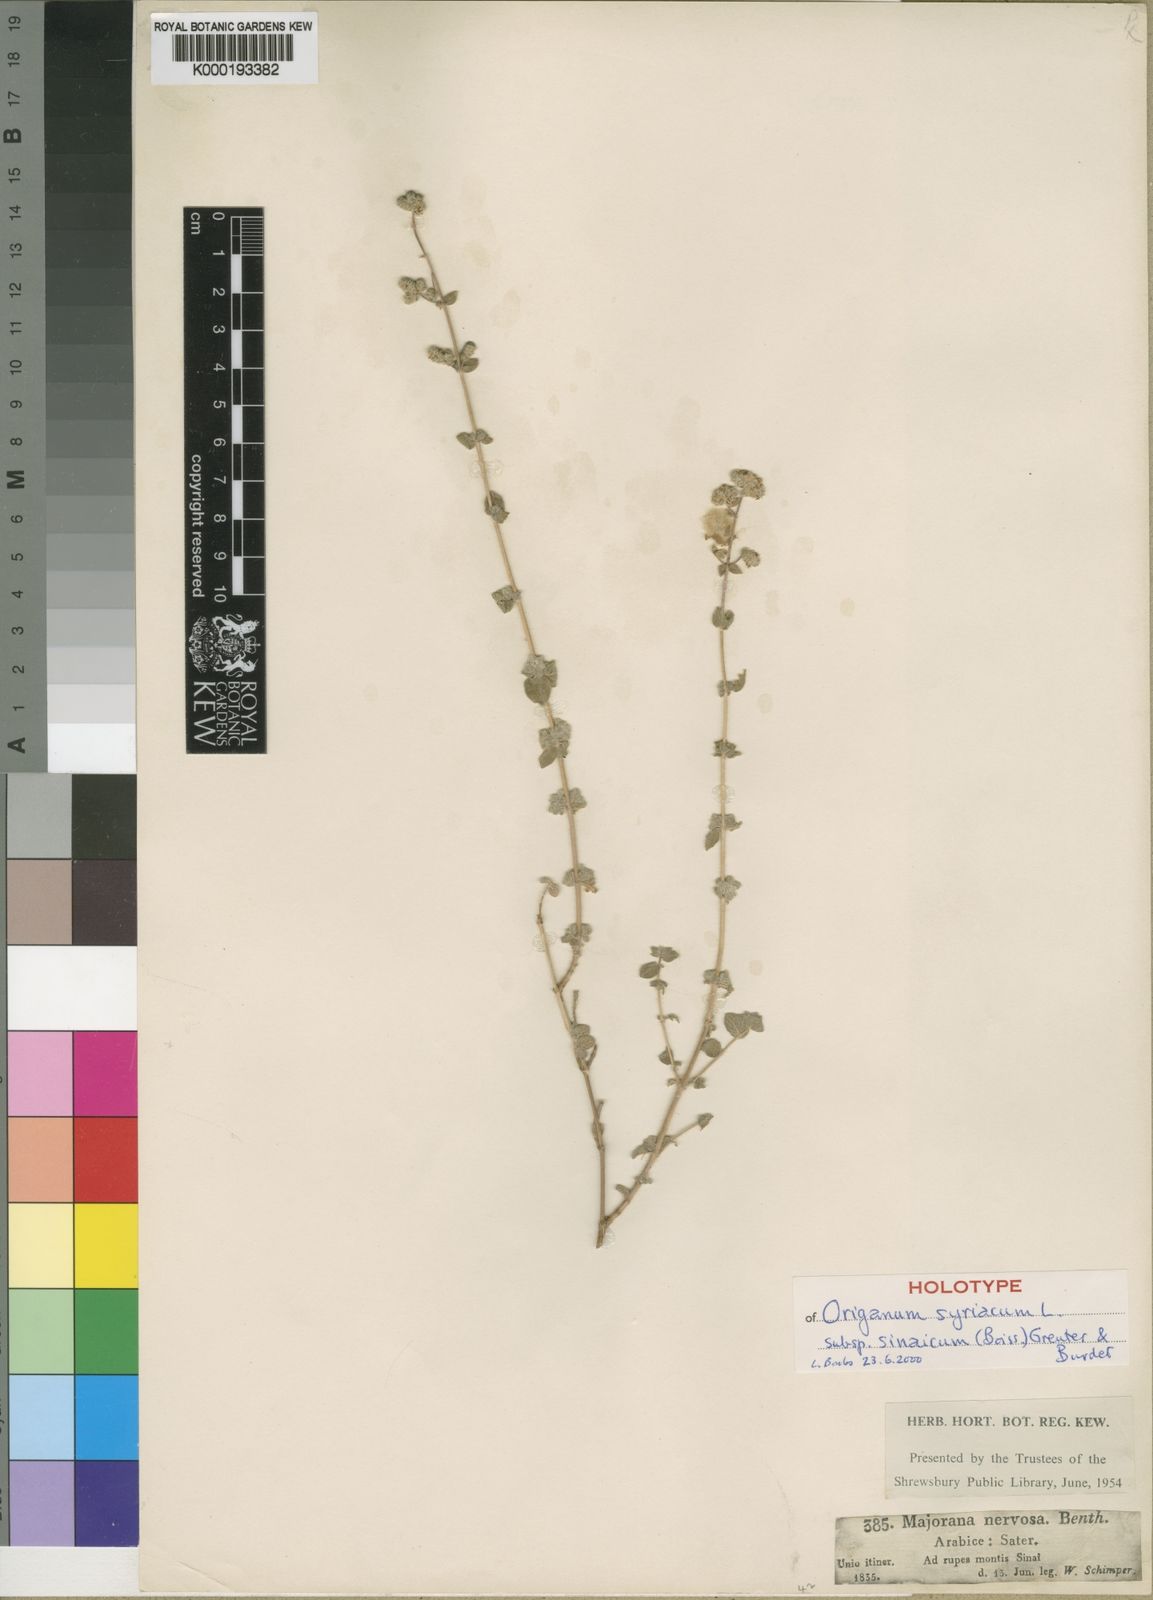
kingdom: Plantae
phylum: Tracheophyta
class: Magnoliopsida
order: Lamiales
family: Lamiaceae
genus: Origanum
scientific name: Origanum syriacum
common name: Biblical-hyssop
